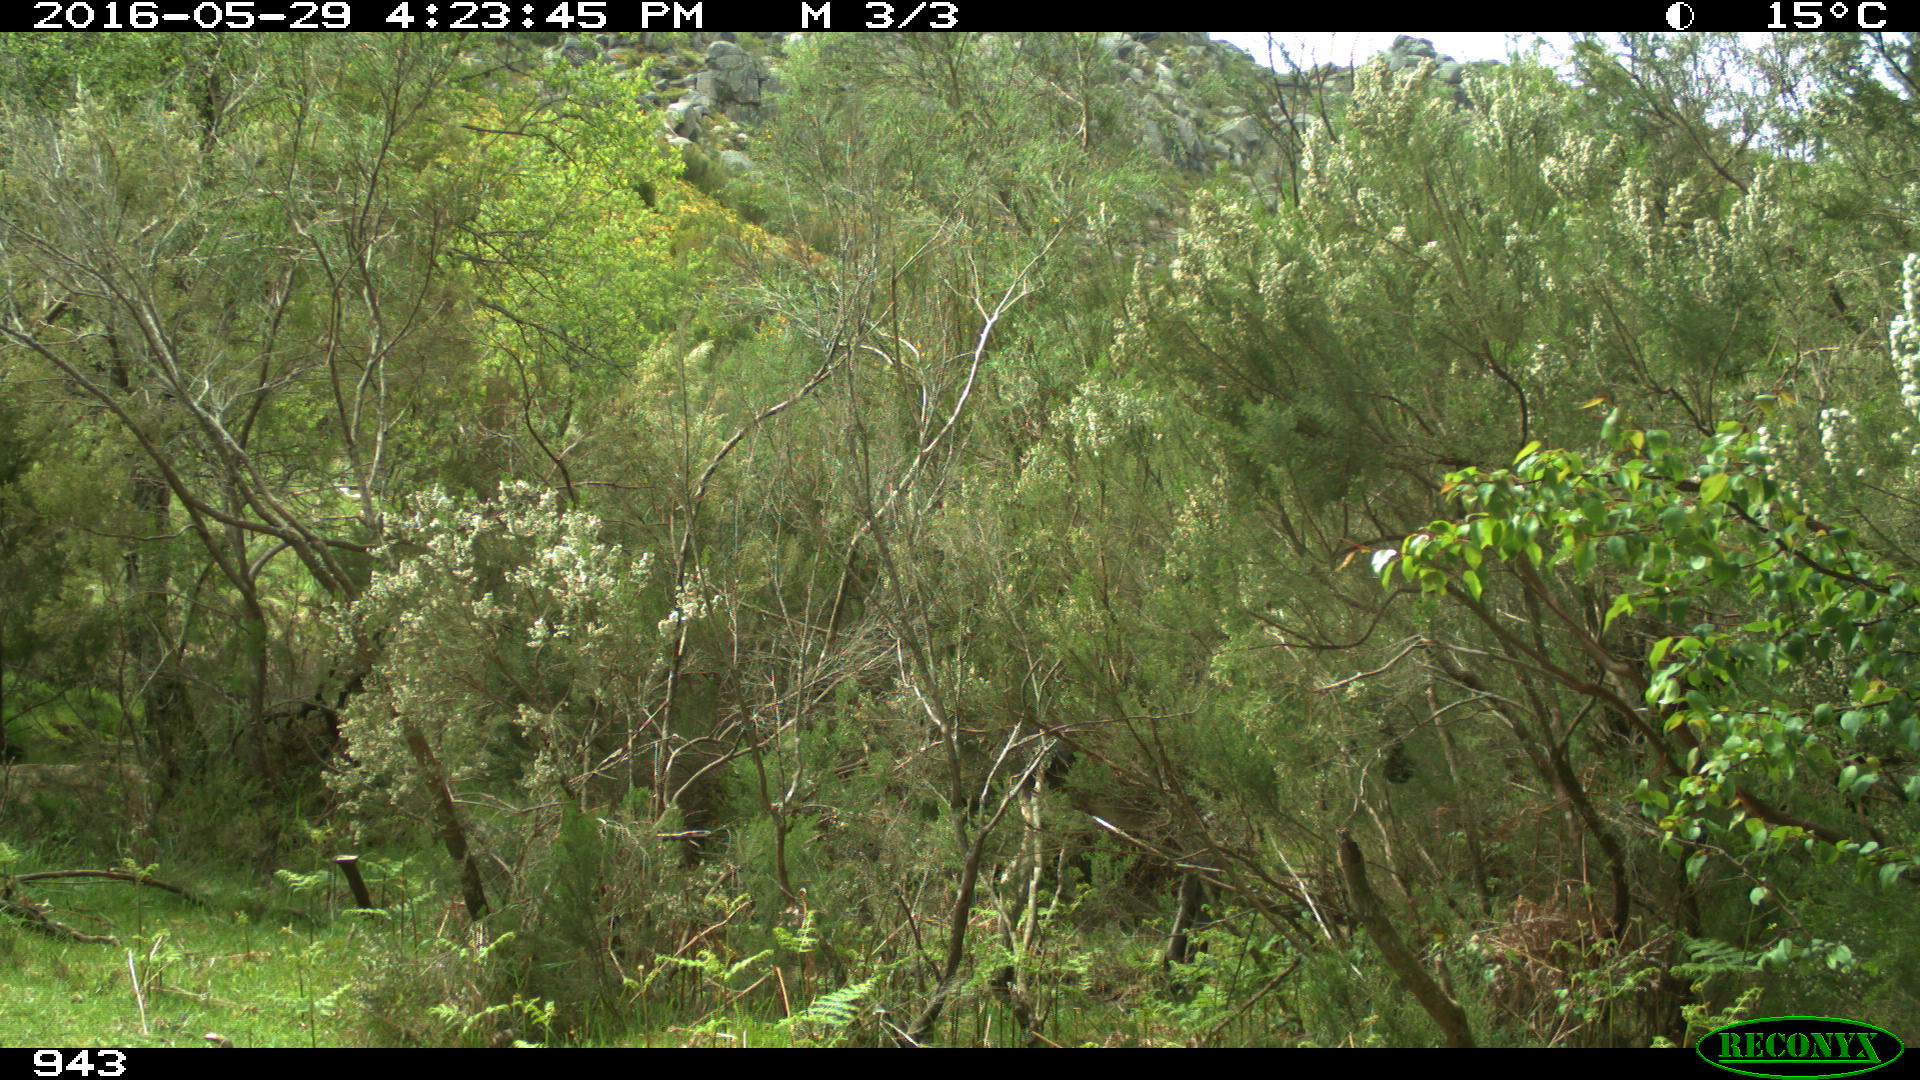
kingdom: Animalia
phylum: Chordata
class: Mammalia
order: Perissodactyla
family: Equidae
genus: Equus
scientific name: Equus caballus
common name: Horse
